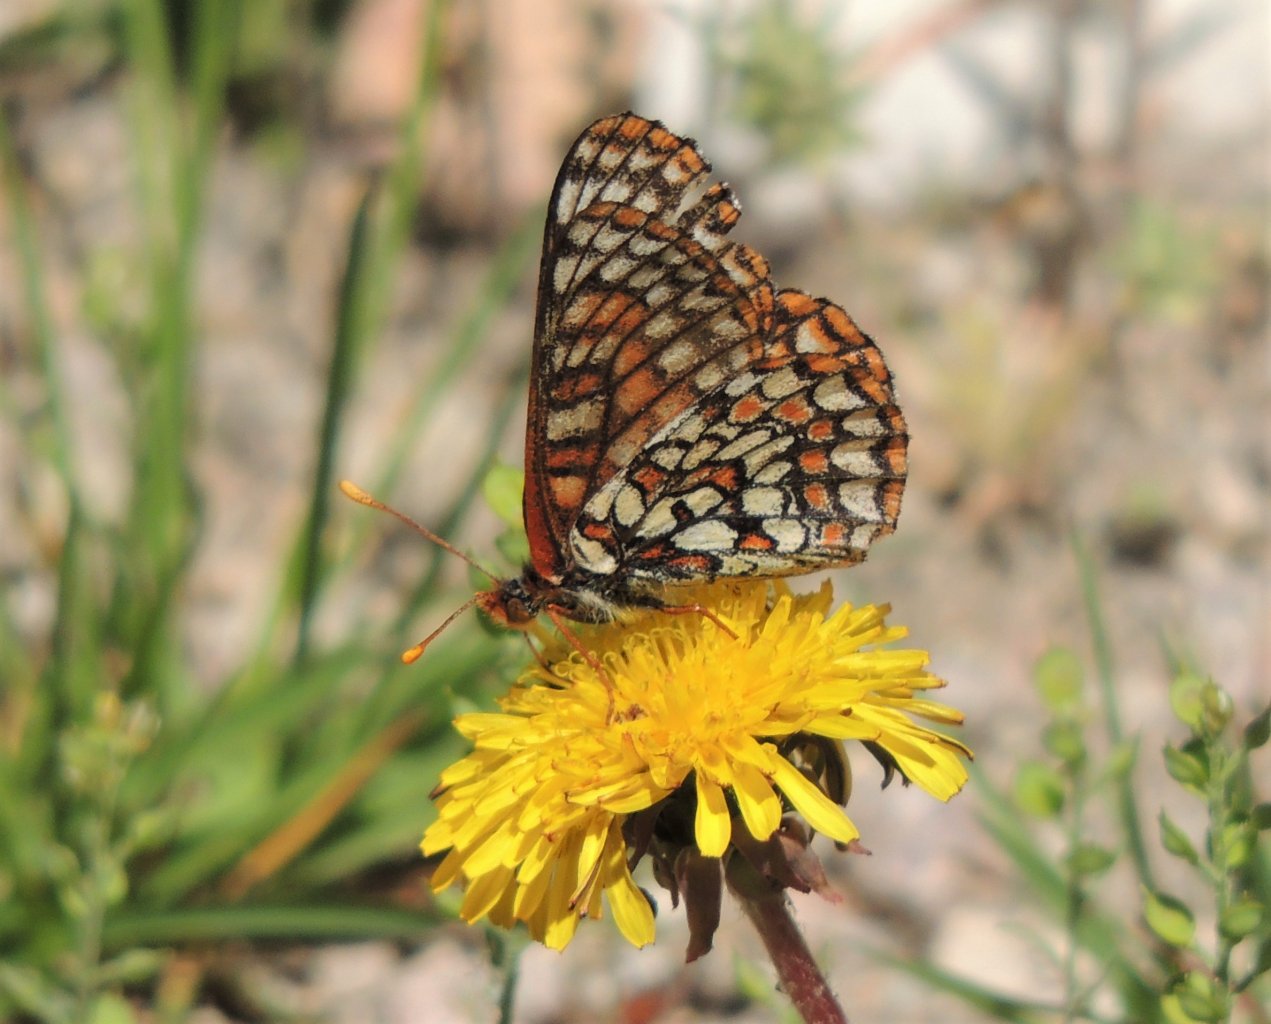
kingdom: Animalia
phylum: Arthropoda
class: Insecta
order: Lepidoptera
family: Nymphalidae
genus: Occidryas
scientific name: Occidryas anicia
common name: Anicia Checkerspot
